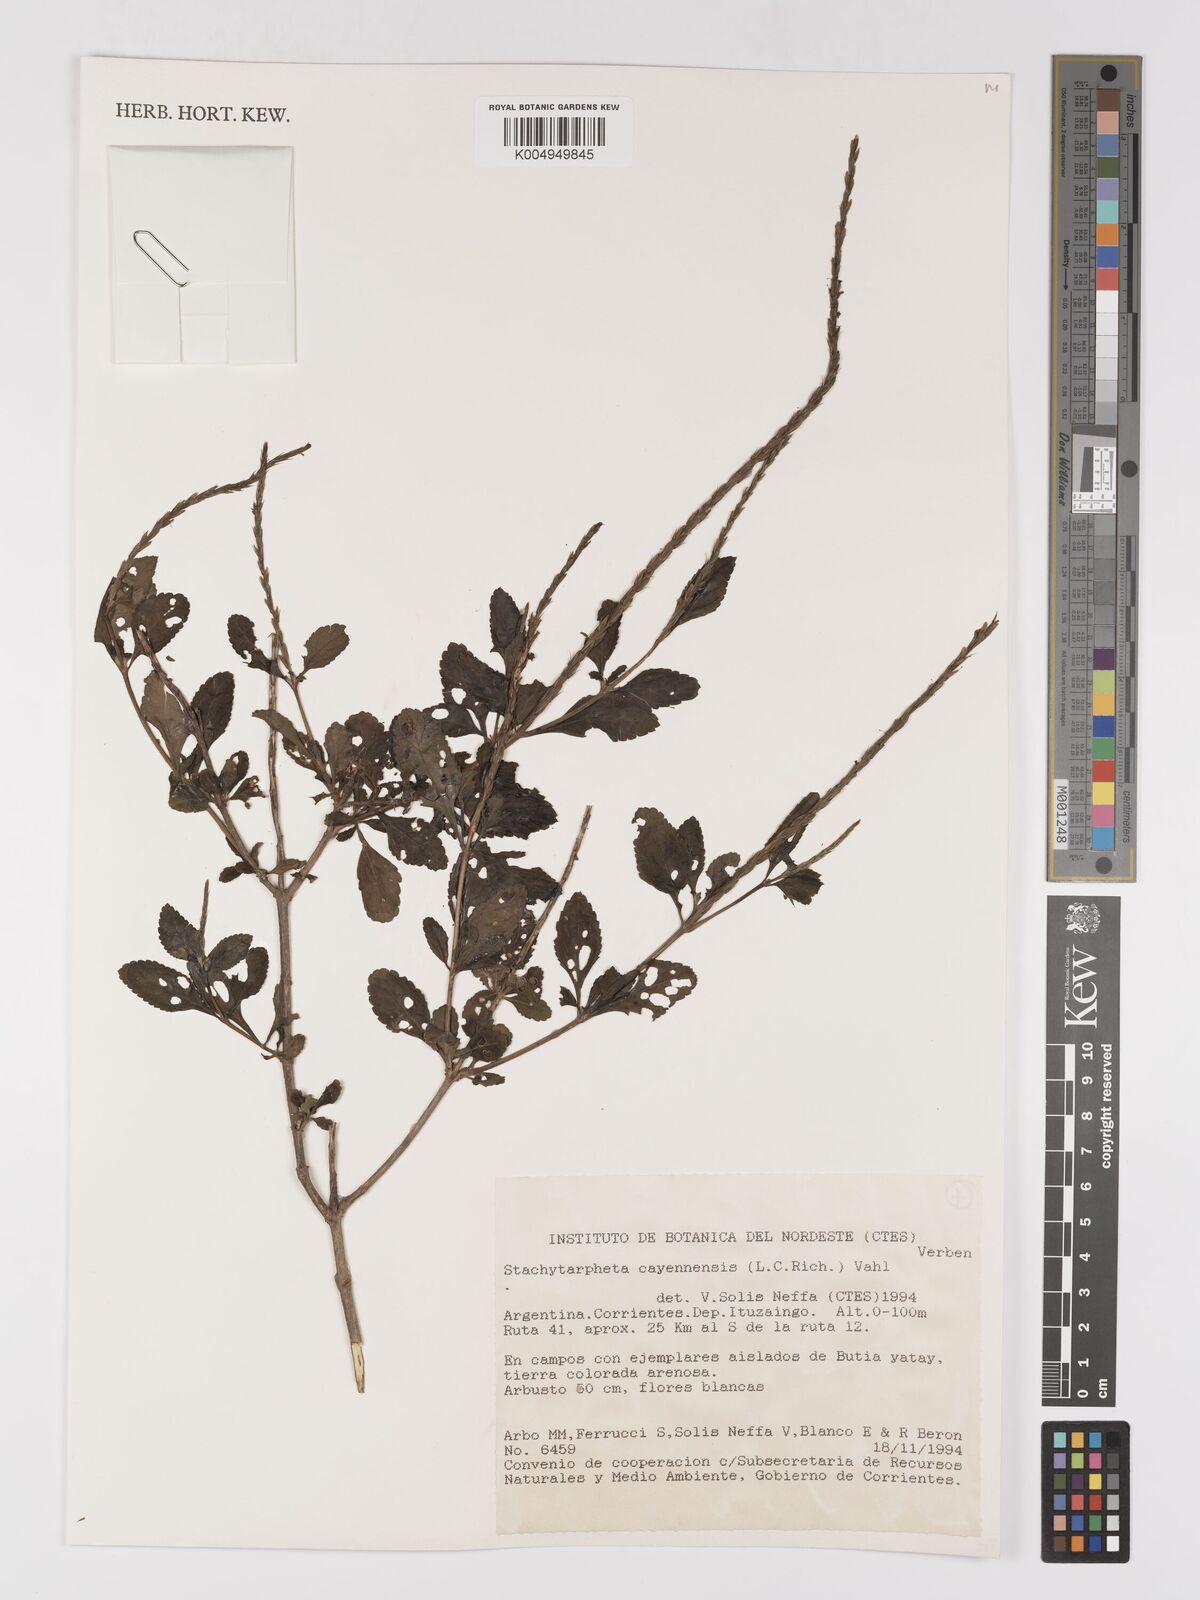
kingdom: Plantae
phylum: Tracheophyta
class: Magnoliopsida
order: Lamiales
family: Verbenaceae
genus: Stachytarpheta
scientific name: Stachytarpheta cayennensis
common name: Cayenne porterweed
